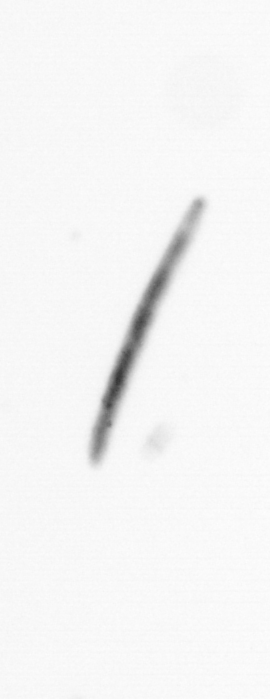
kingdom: Chromista
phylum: Ochrophyta
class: Bacillariophyceae
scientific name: Bacillariophyceae
